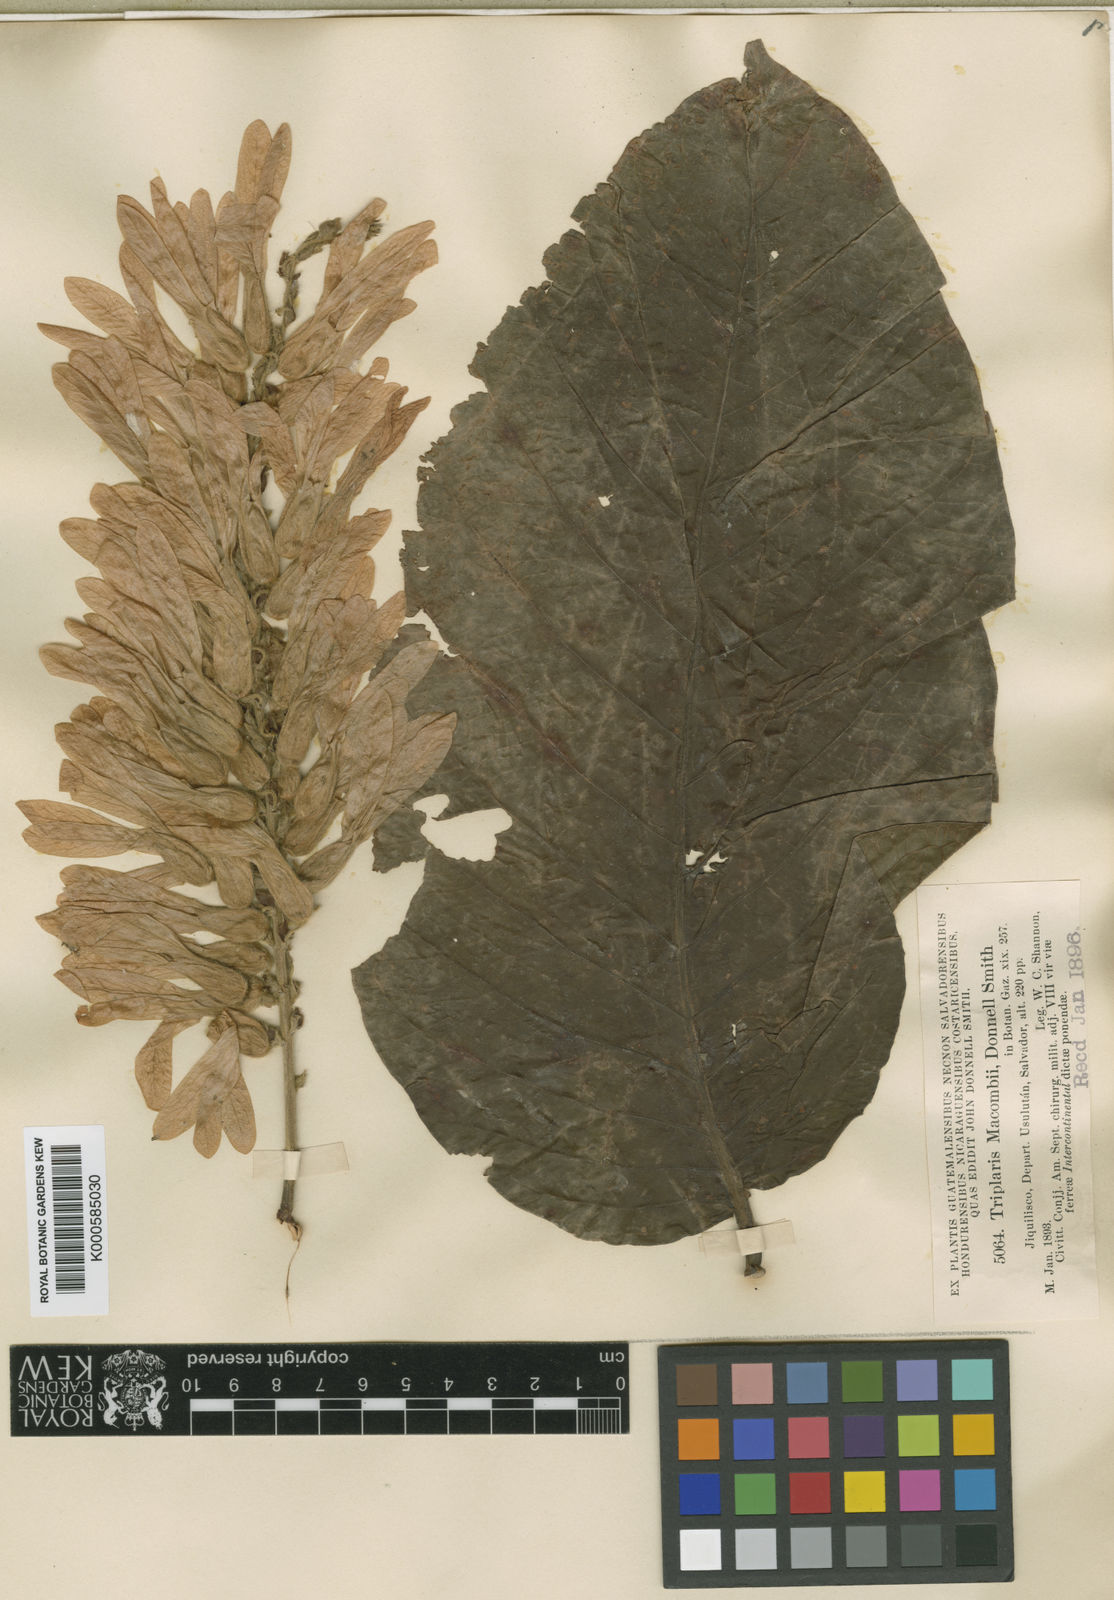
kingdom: Plantae
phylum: Tracheophyta
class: Magnoliopsida
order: Caryophyllales
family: Polygonaceae
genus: Triplaris
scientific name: Triplaris
